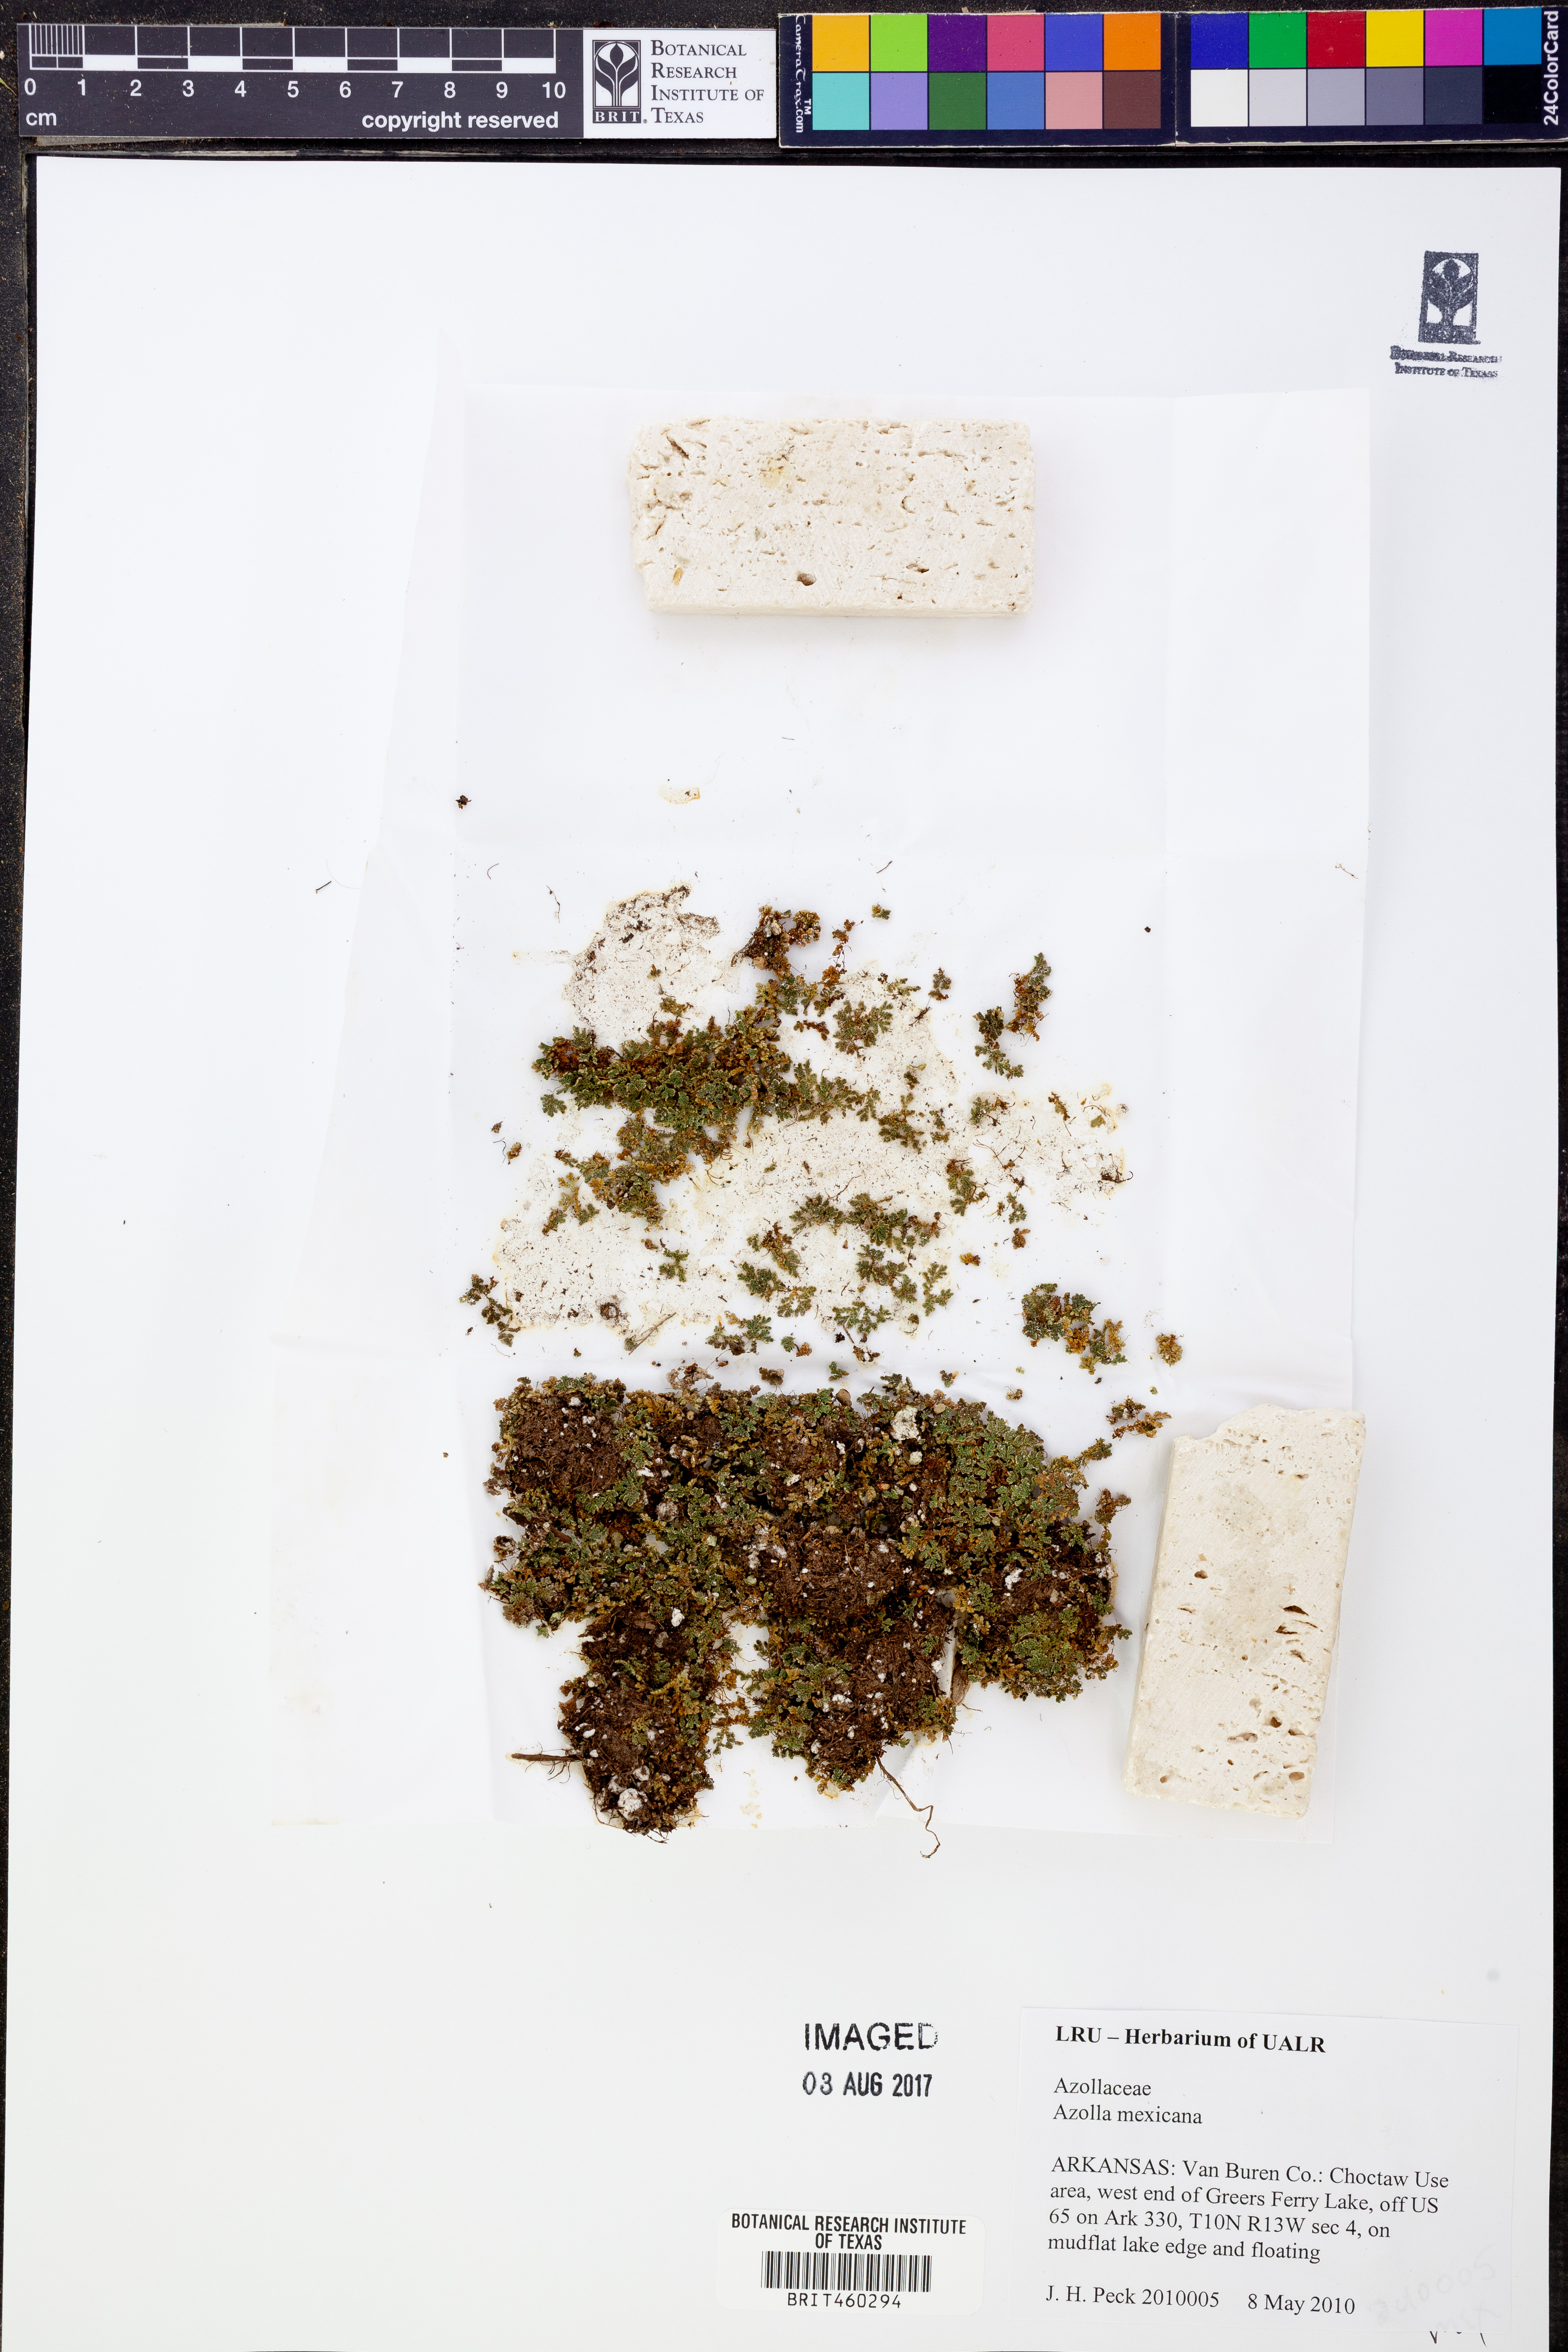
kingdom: Plantae
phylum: Tracheophyta
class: Polypodiopsida
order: Salviniales
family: Salviniaceae
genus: Azolla
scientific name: Azolla cristata
